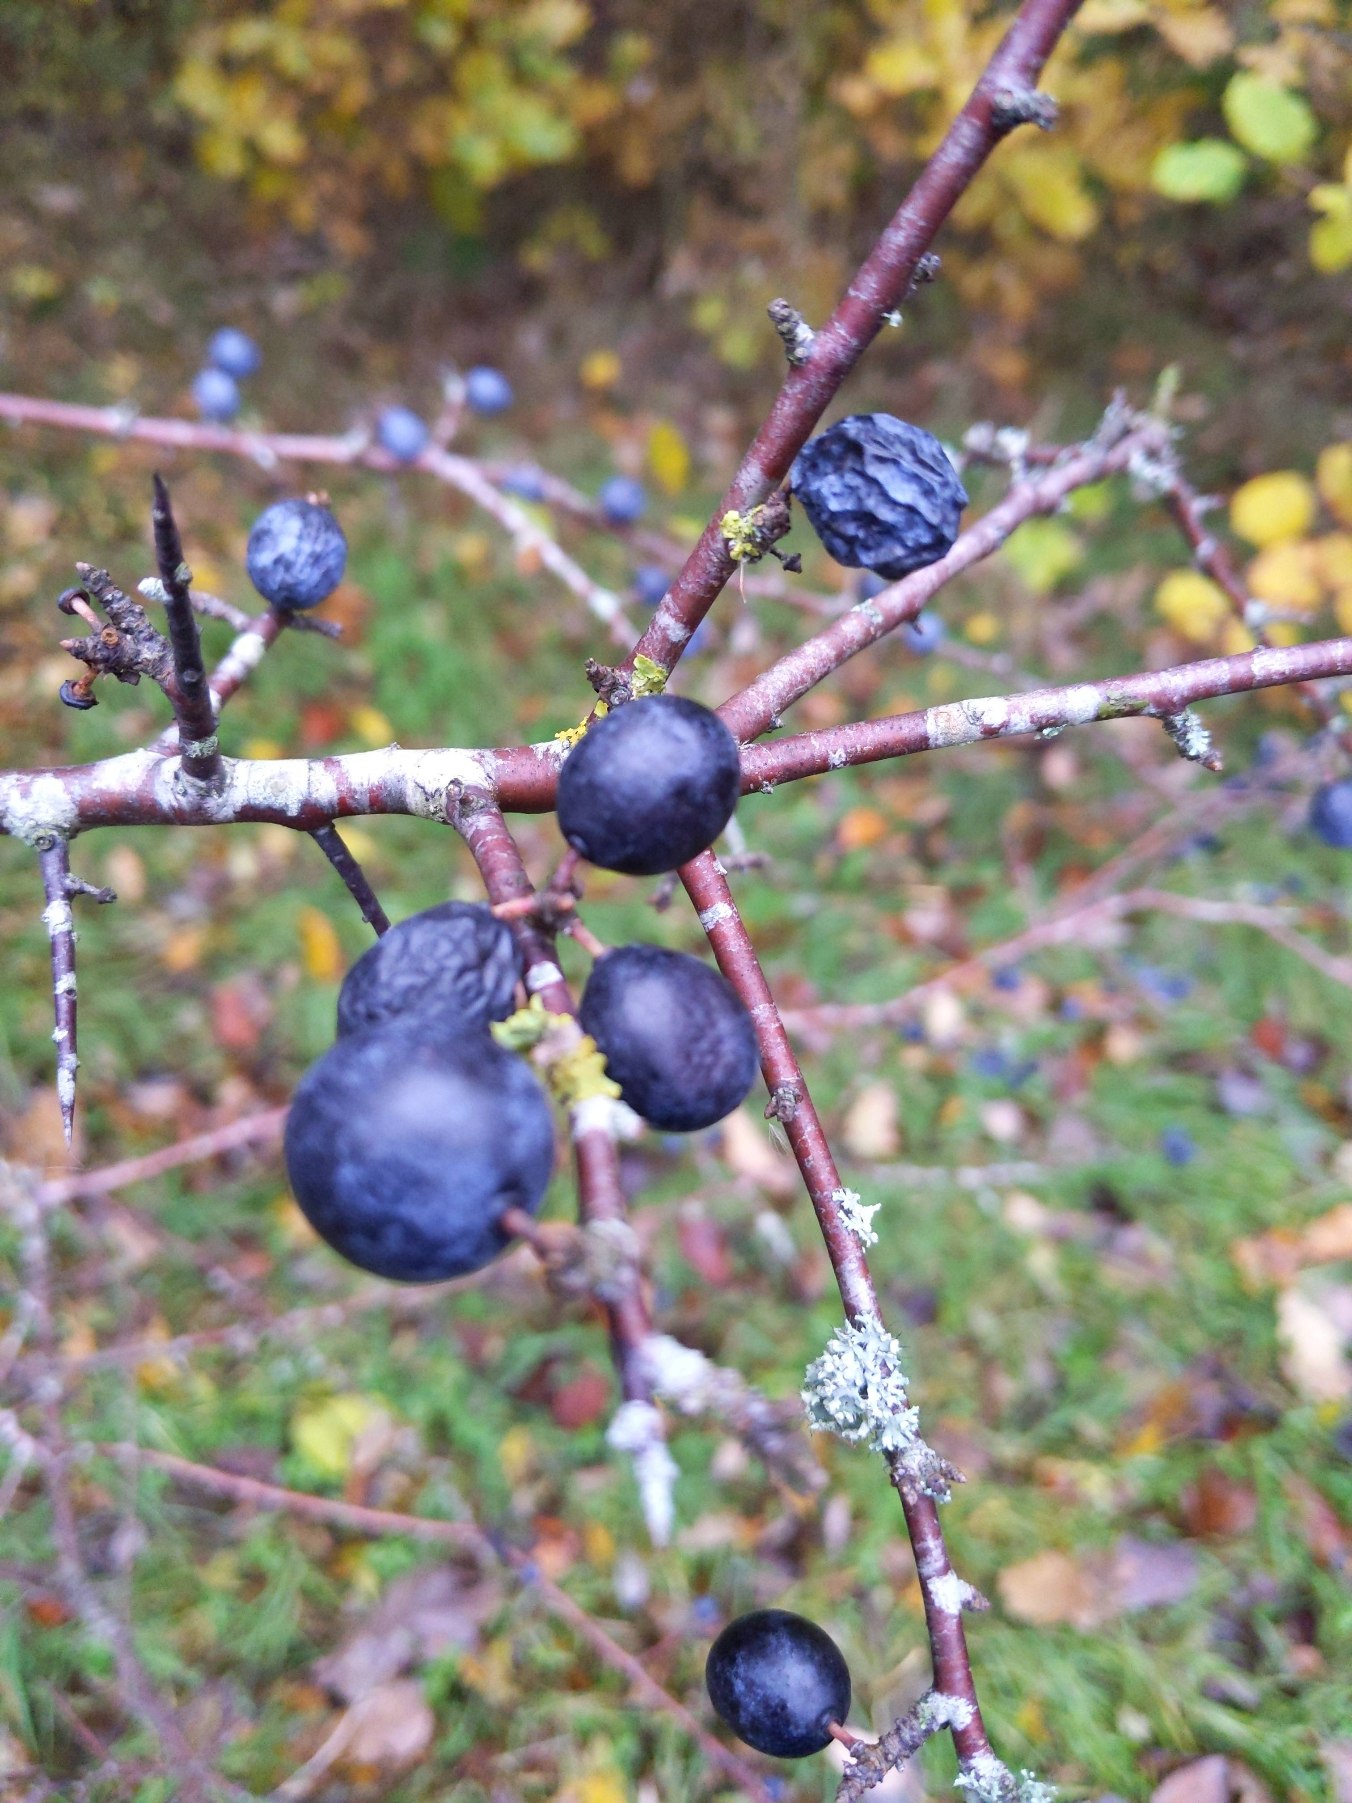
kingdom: Plantae
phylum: Tracheophyta
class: Magnoliopsida
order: Rosales
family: Rosaceae
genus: Prunus
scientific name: Prunus spinosa
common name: Slåen
